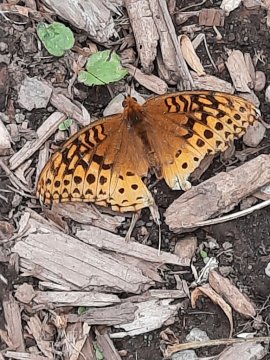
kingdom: Animalia
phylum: Arthropoda
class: Insecta
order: Lepidoptera
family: Nymphalidae
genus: Speyeria
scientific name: Speyeria cybele
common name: Great Spangled Fritillary
